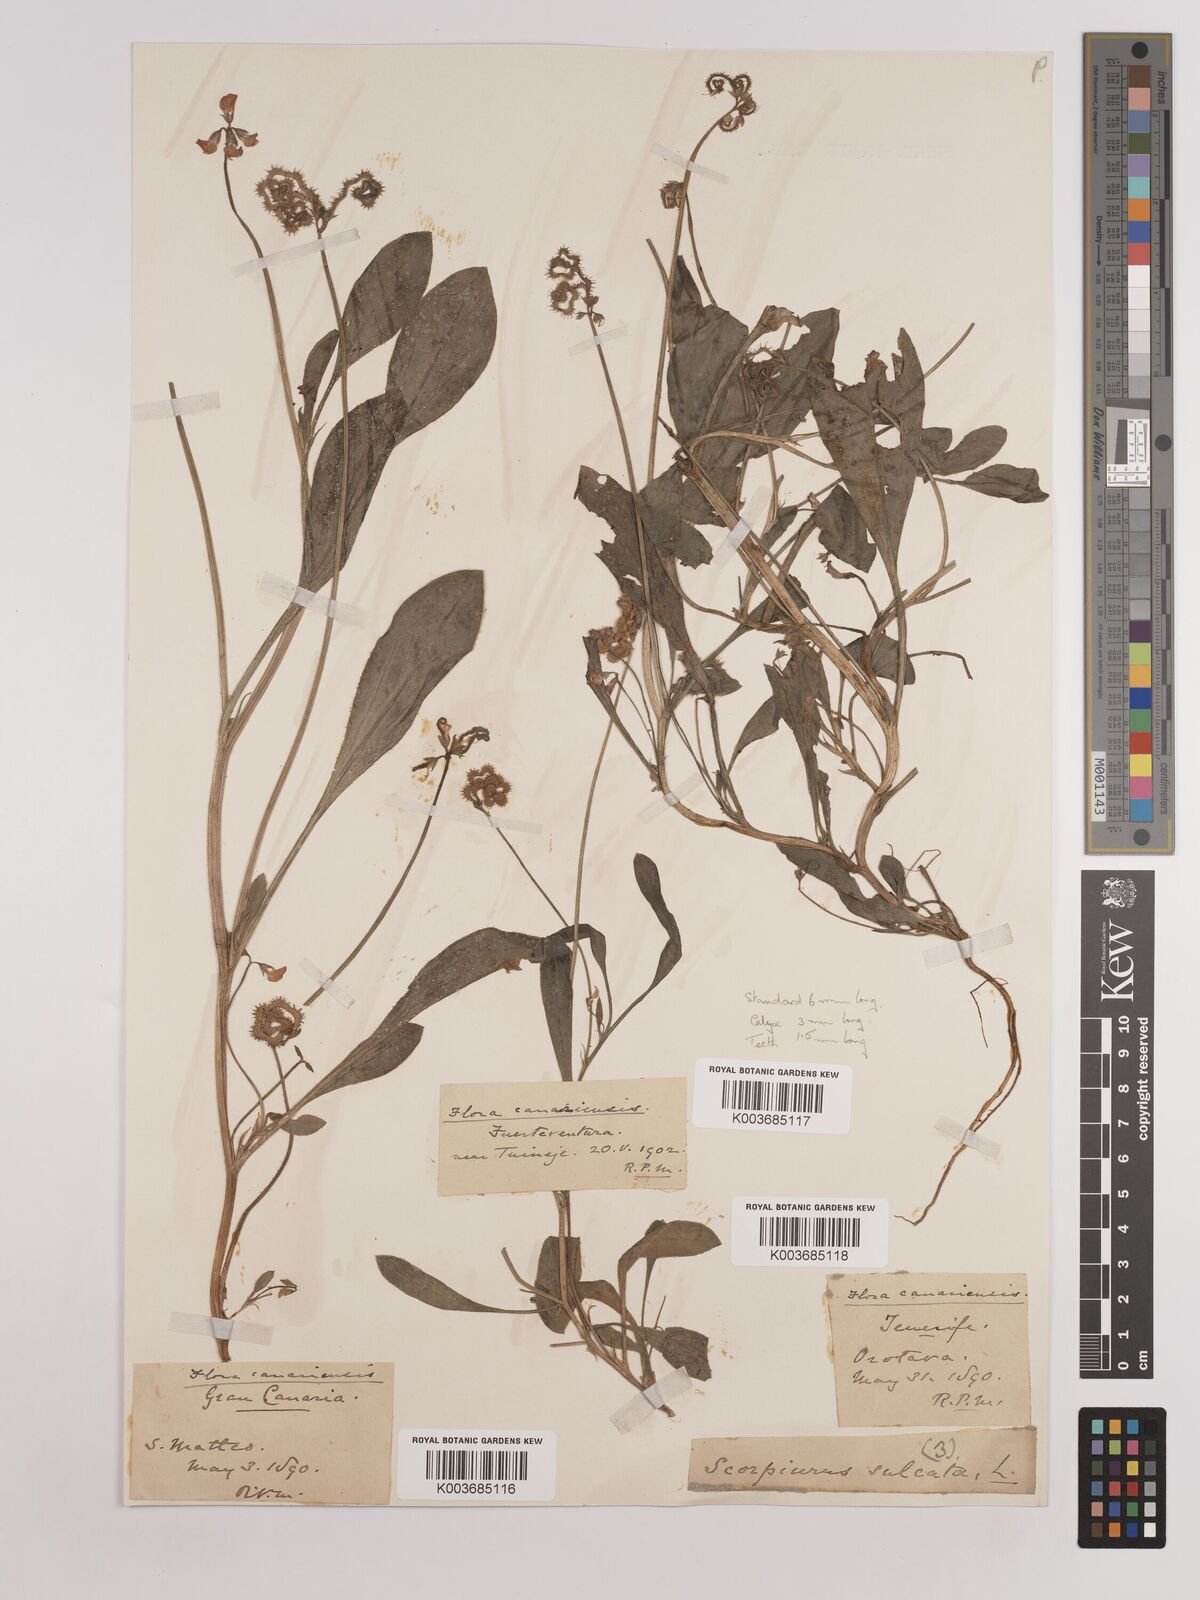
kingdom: Plantae
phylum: Tracheophyta
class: Magnoliopsida
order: Fabales
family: Fabaceae
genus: Scorpiurus
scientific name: Scorpiurus muricatus
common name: Caterpillar-plant
